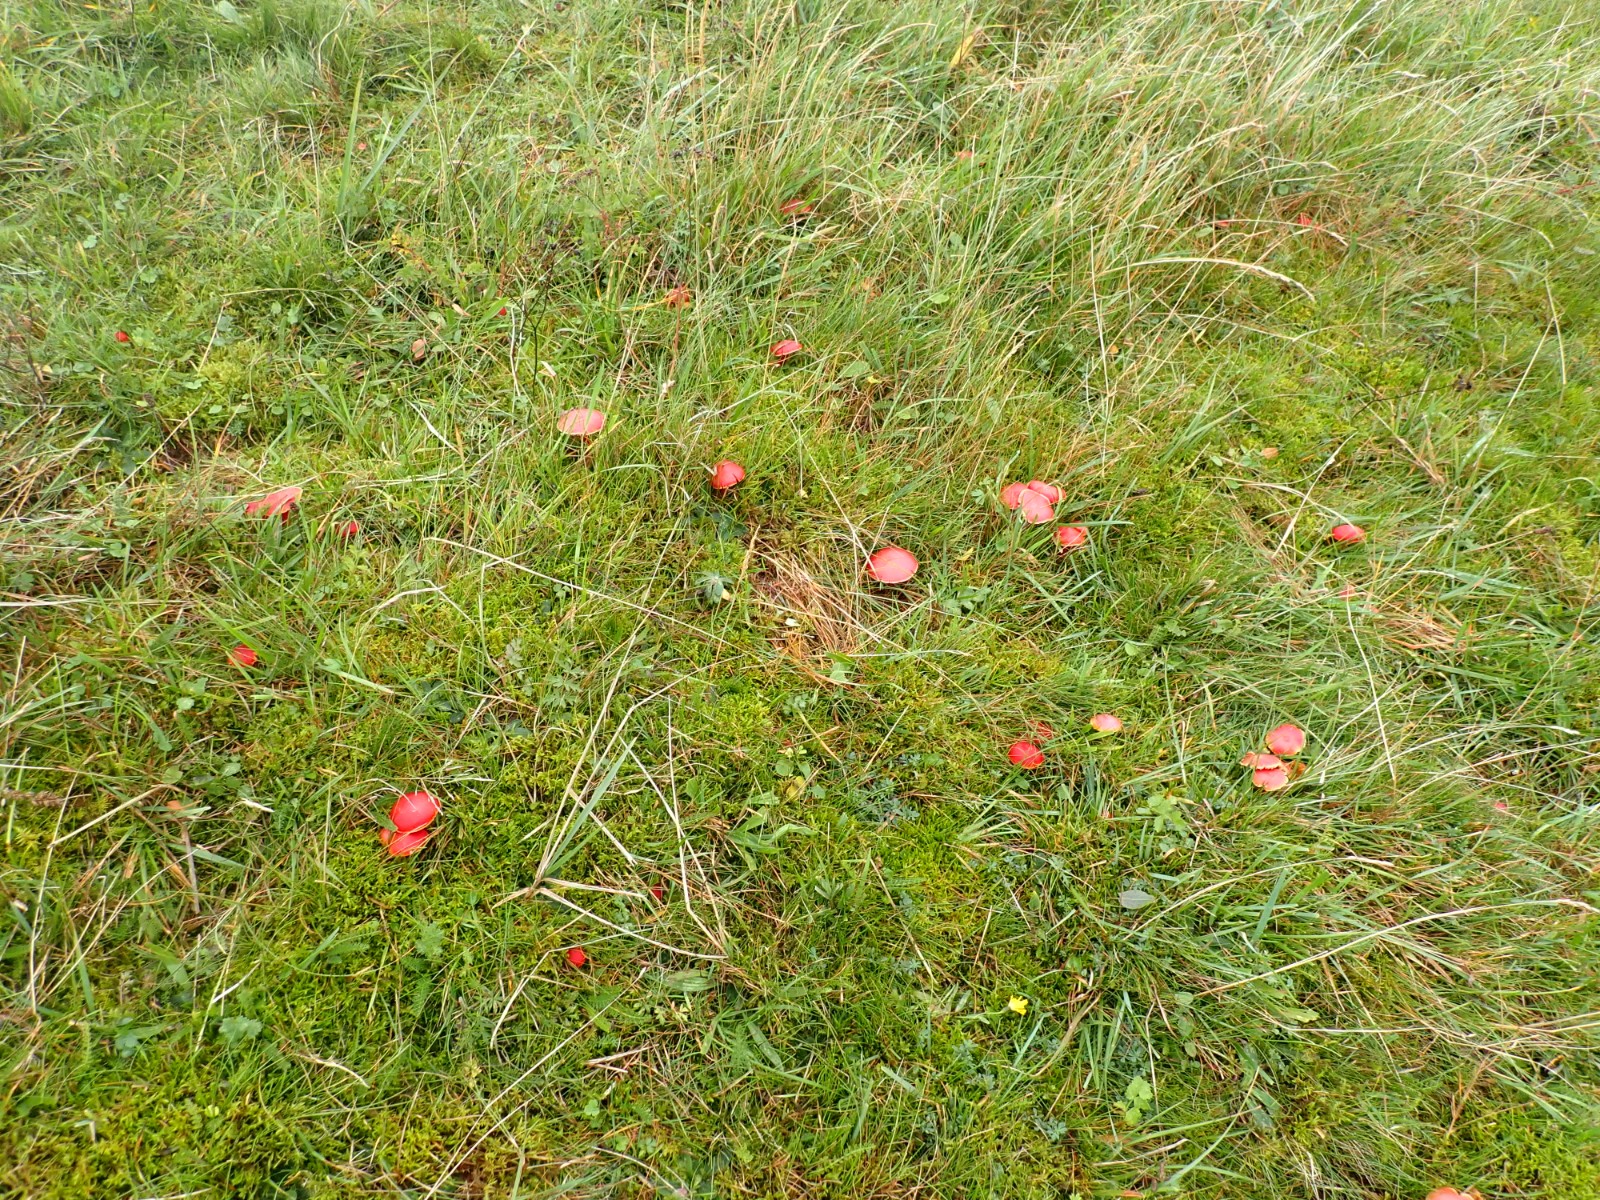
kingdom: Fungi
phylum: Basidiomycota
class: Agaricomycetes
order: Agaricales
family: Hygrophoraceae
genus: Hygrocybe
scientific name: Hygrocybe coccinea
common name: cinnober-vokshat
